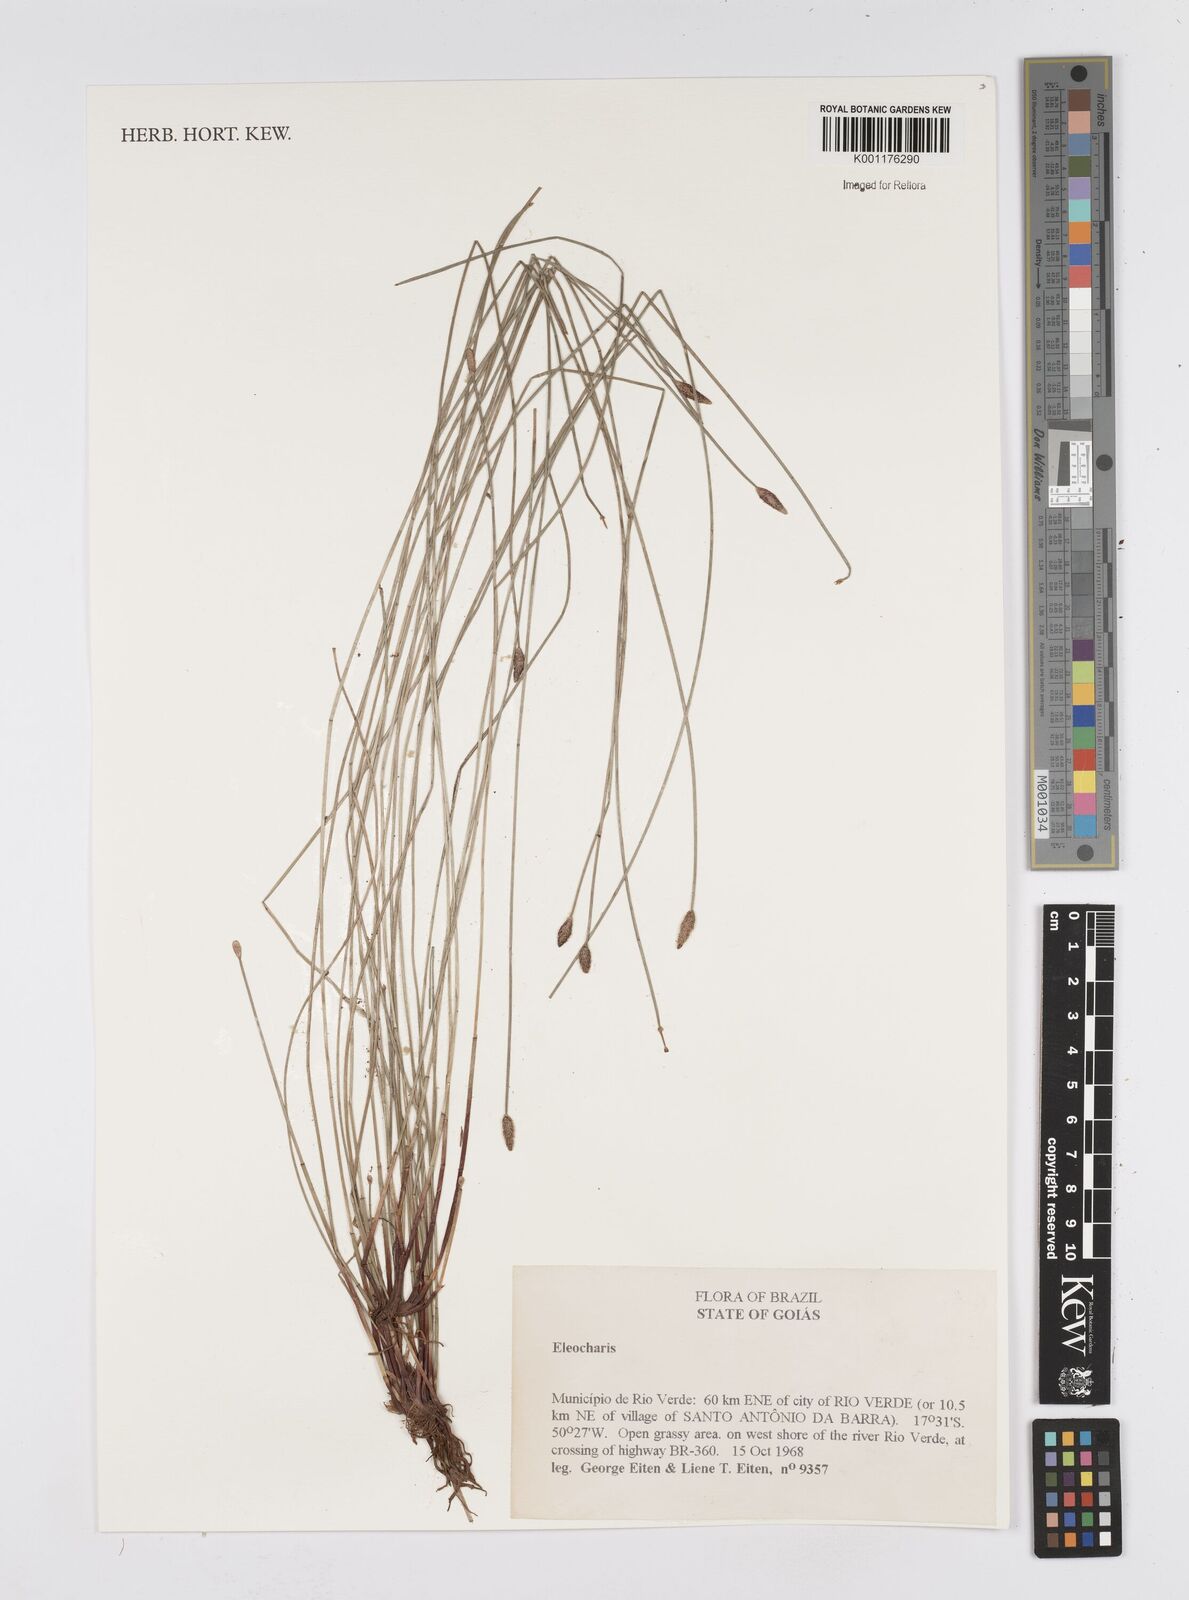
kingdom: Plantae
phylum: Tracheophyta
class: Liliopsida
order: Poales
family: Cyperaceae
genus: Eleocharis
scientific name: Eleocharis
